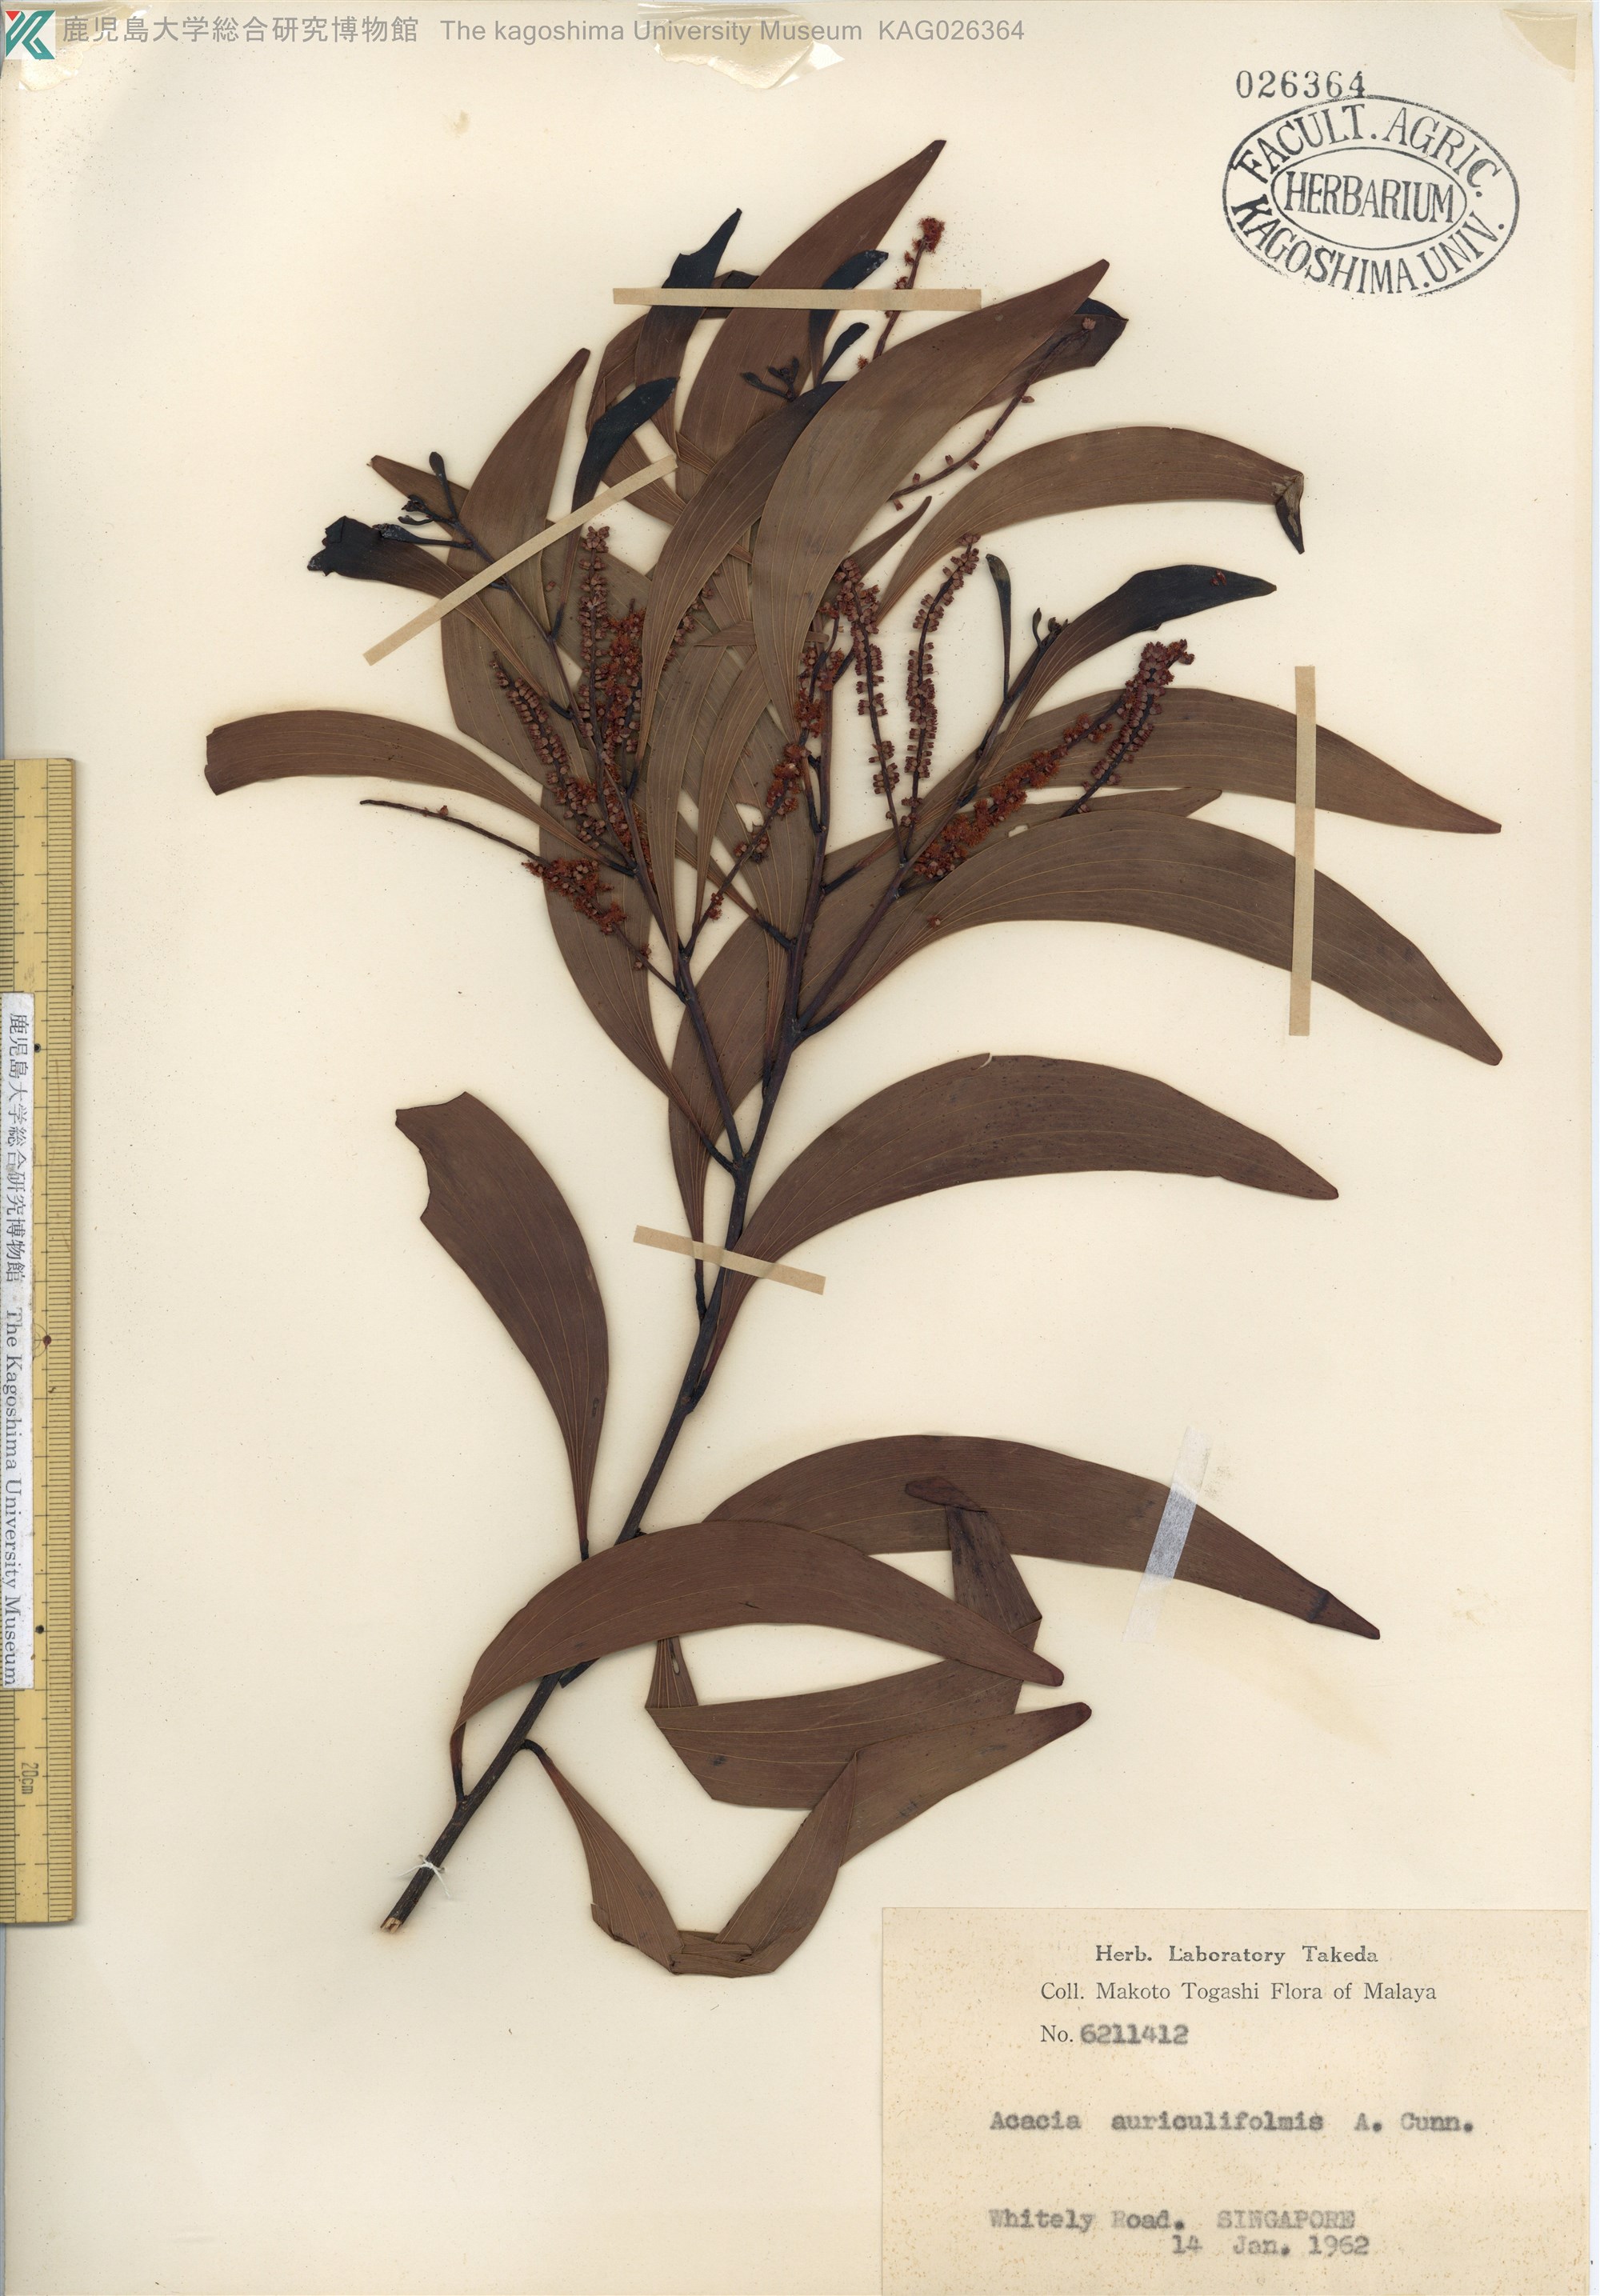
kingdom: Plantae
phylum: Tracheophyta
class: Magnoliopsida
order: Fabales
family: Fabaceae
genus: Acacia
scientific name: Acacia auriculiformis
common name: Earleaf acacia
